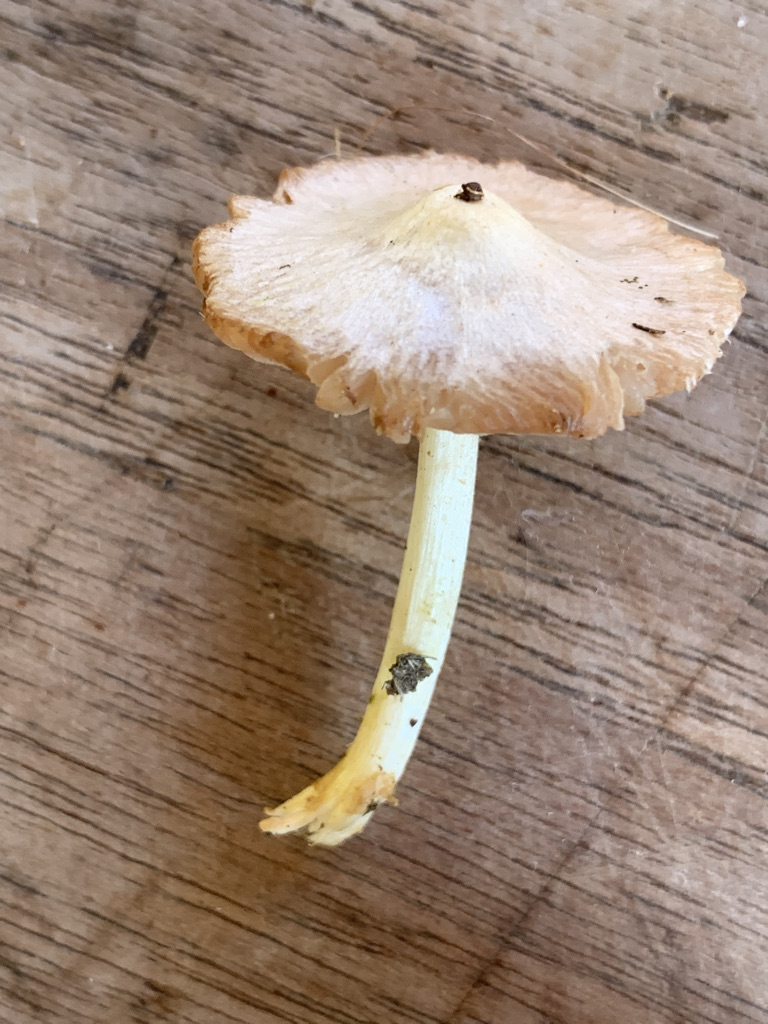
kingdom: Fungi
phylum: Basidiomycota
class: Agaricomycetes
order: Agaricales
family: Bolbitiaceae
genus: Conocybe
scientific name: Conocybe
